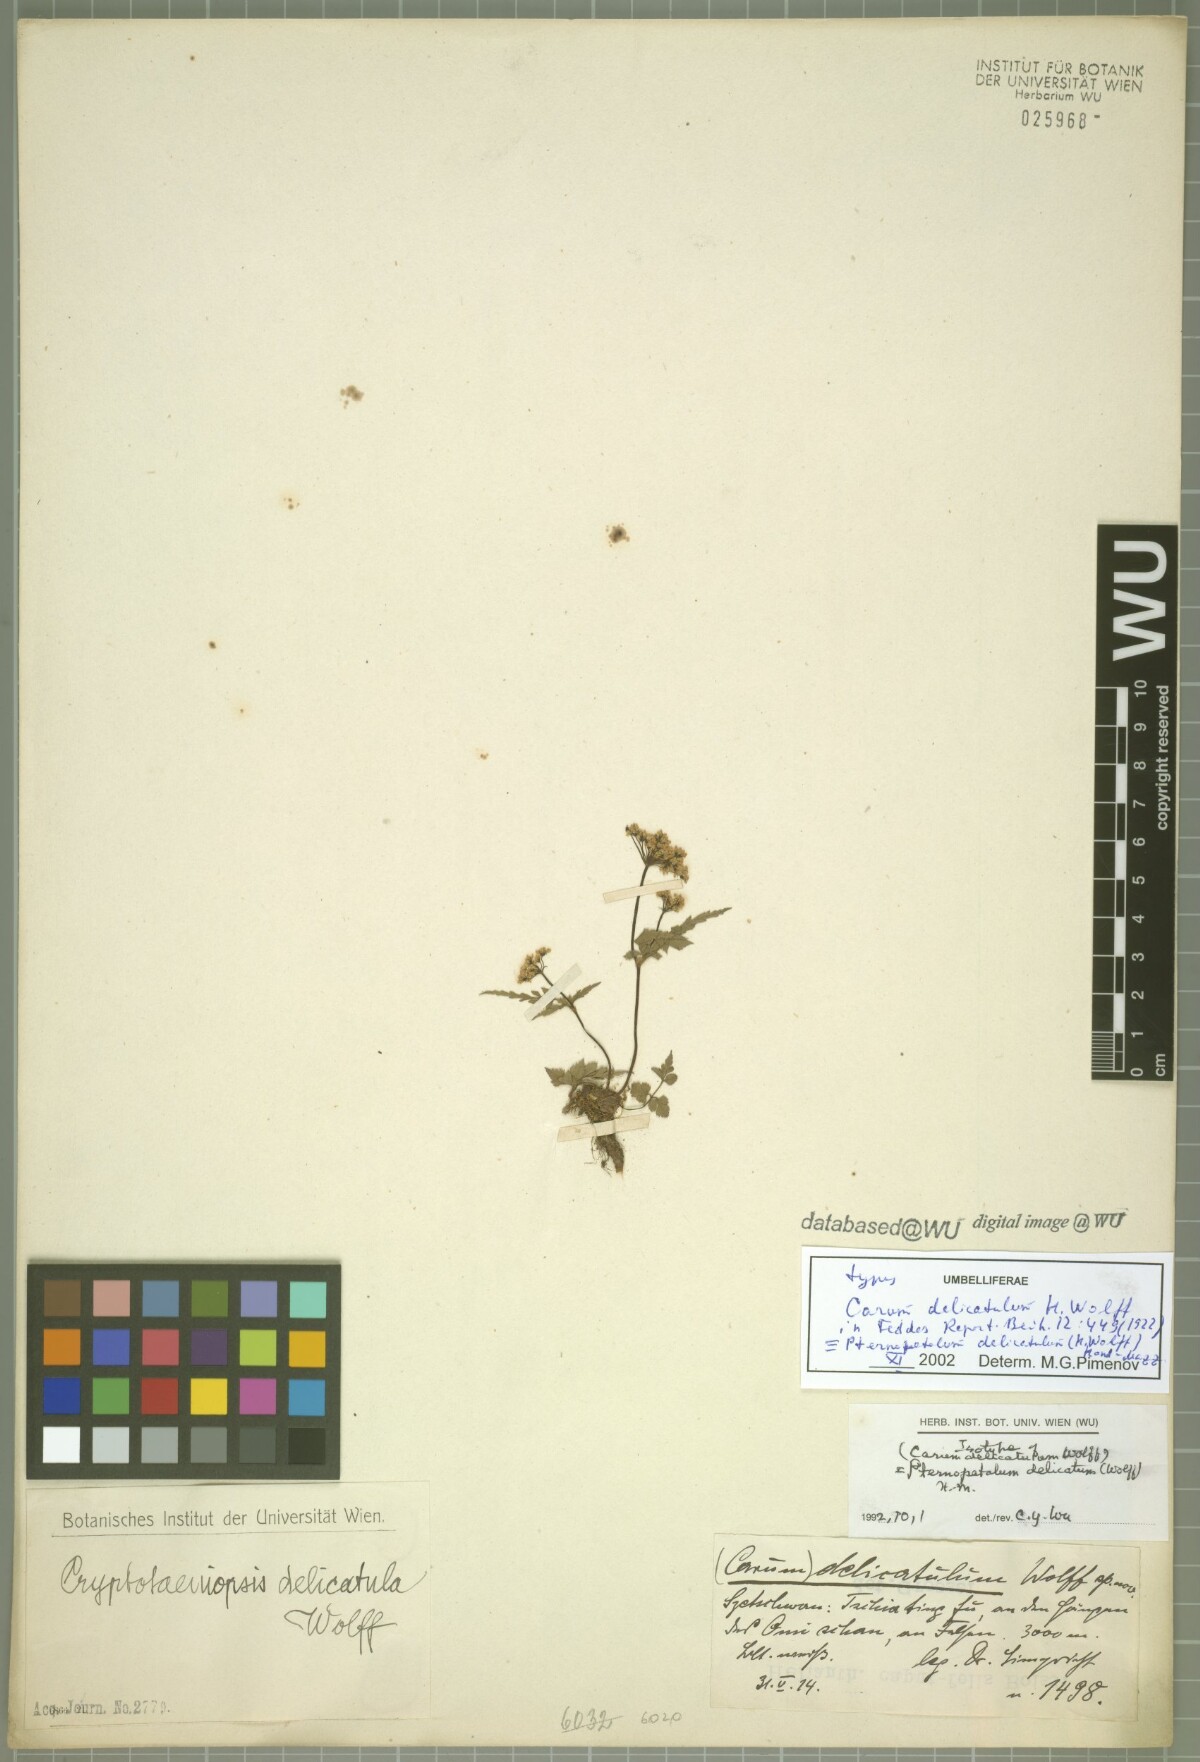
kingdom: Plantae
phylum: Tracheophyta
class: Magnoliopsida
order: Apiales
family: Apiaceae
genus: Pternopetalum
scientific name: Pternopetalum botrychioides
